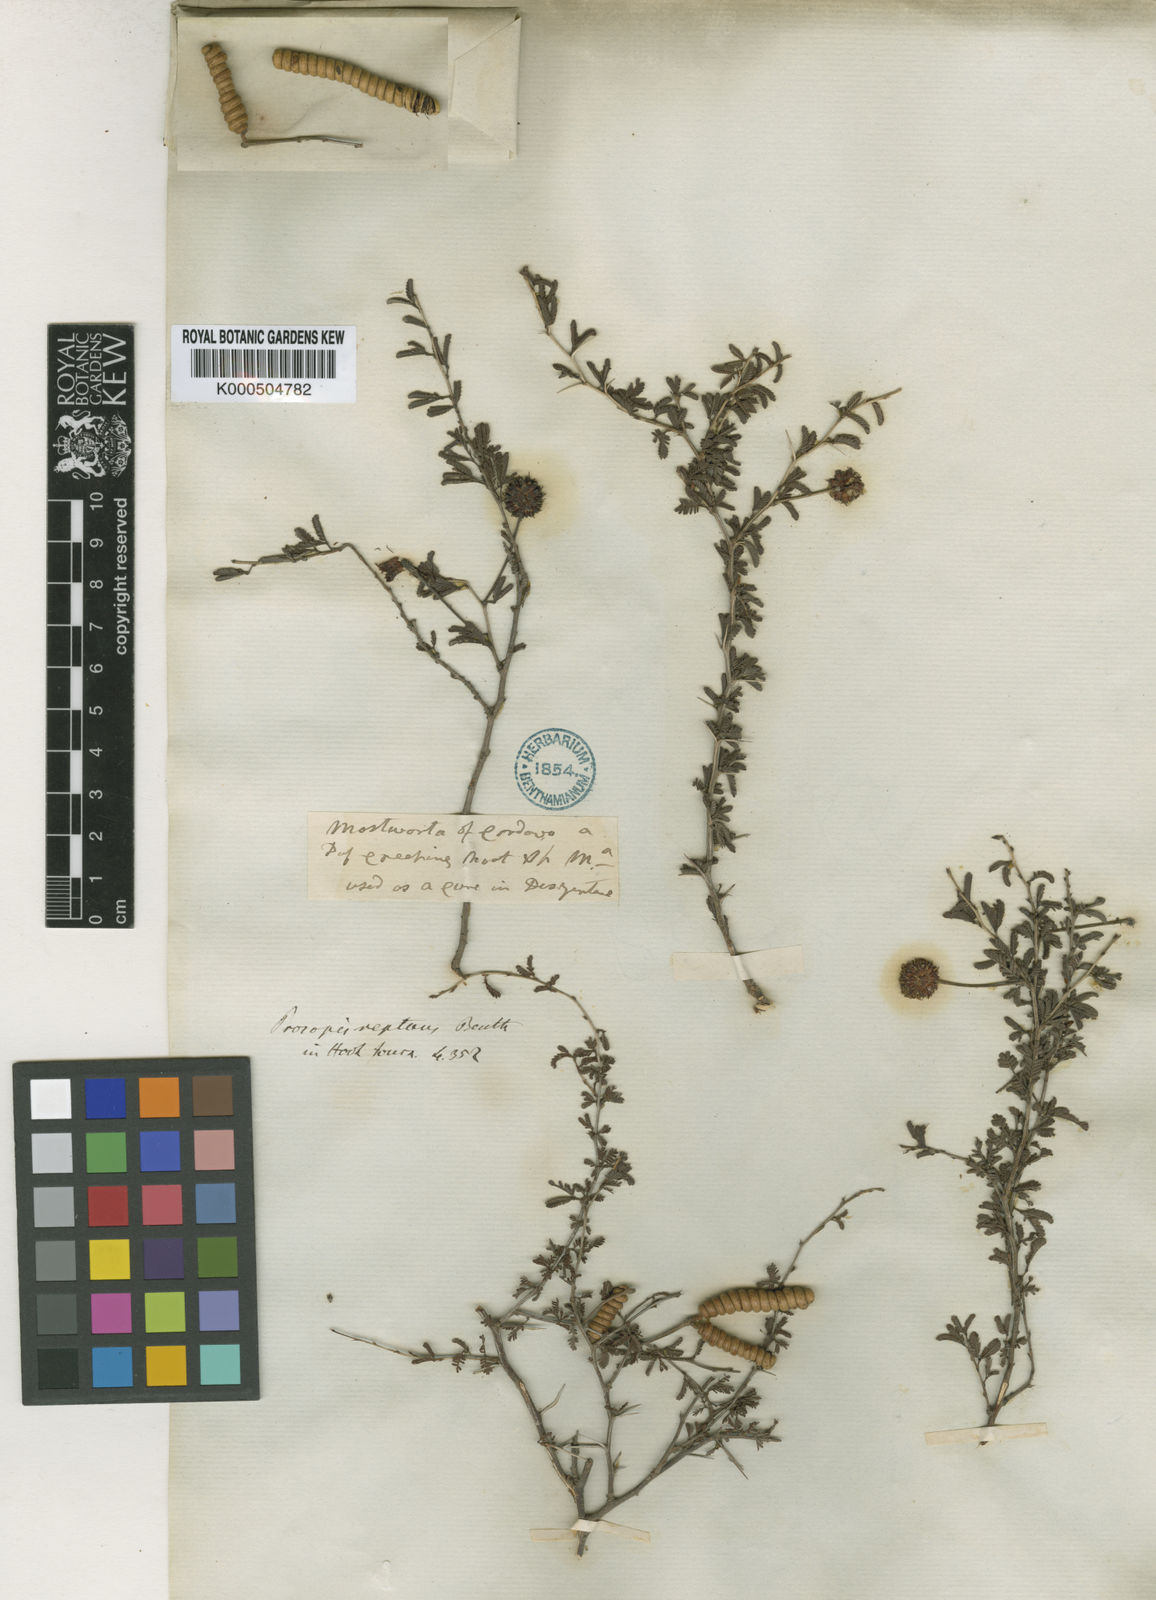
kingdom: Plantae
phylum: Tracheophyta
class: Magnoliopsida
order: Fabales
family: Fabaceae
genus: Prosopis
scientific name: Prosopis reptans
